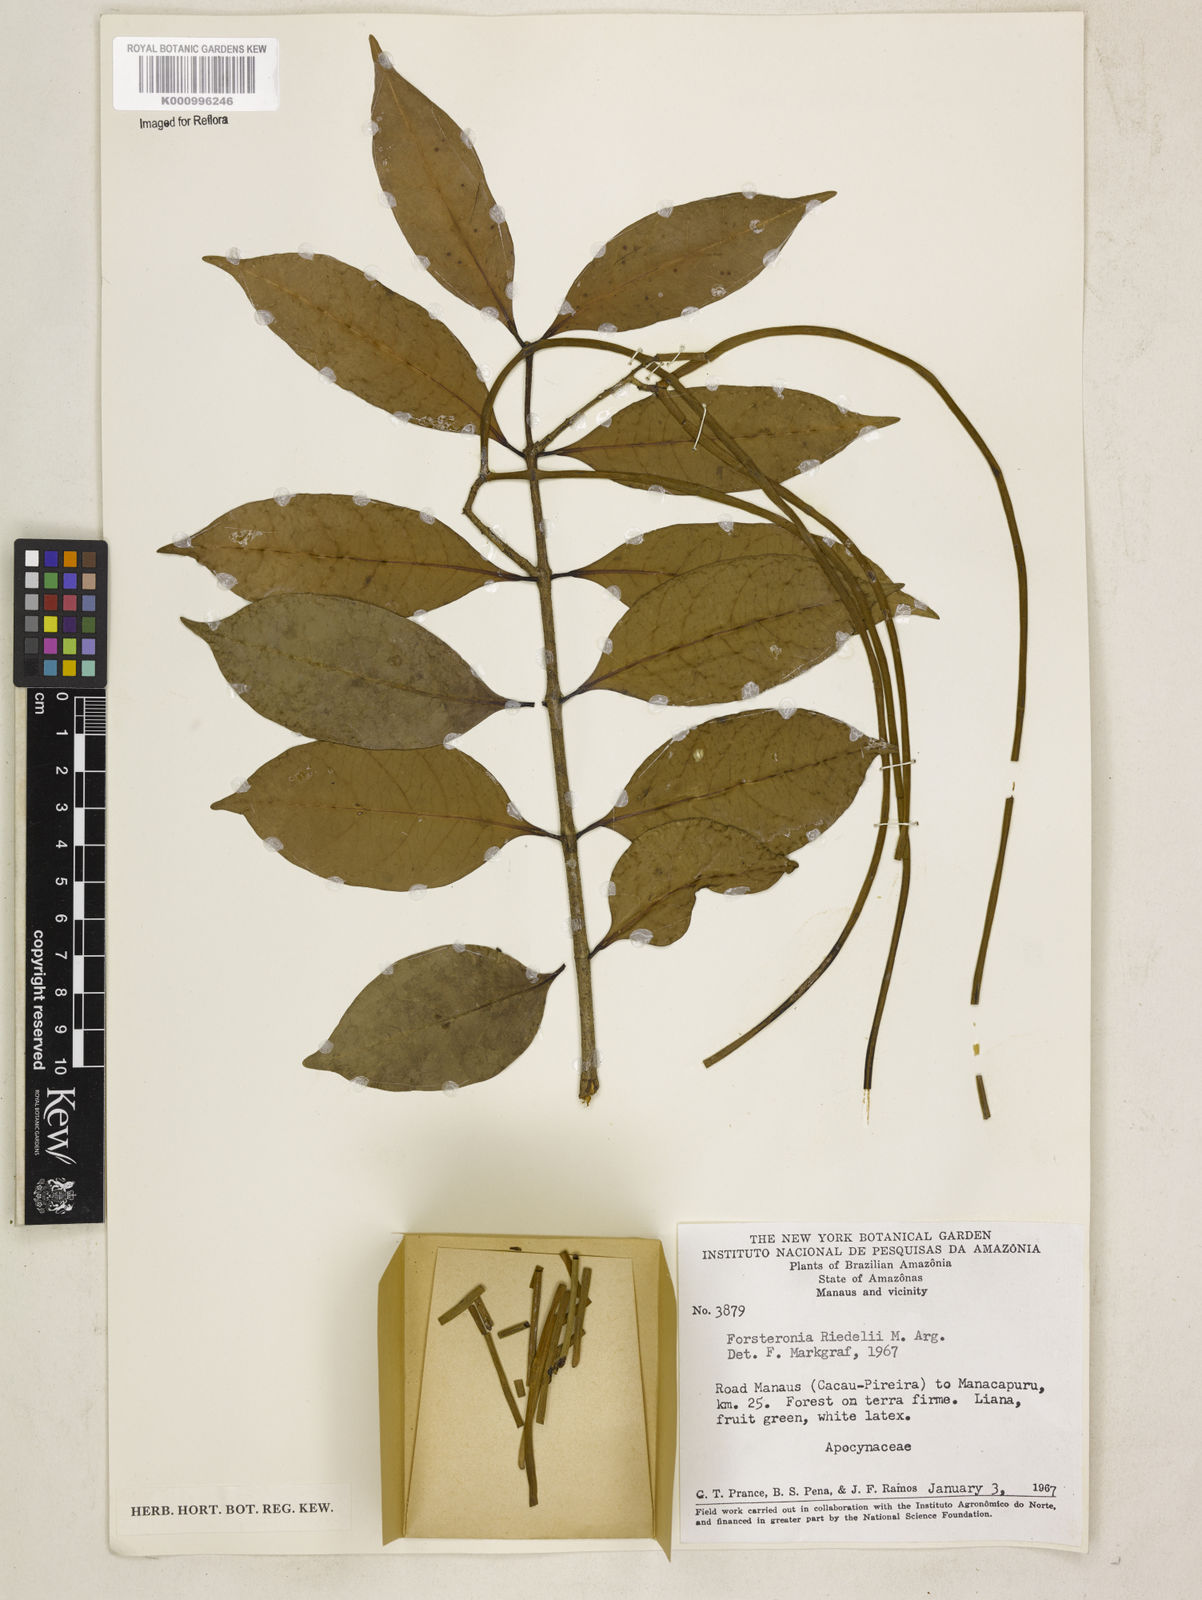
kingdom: Plantae
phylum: Tracheophyta
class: Magnoliopsida
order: Gentianales
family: Apocynaceae
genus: Forsteronia
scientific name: Forsteronia
